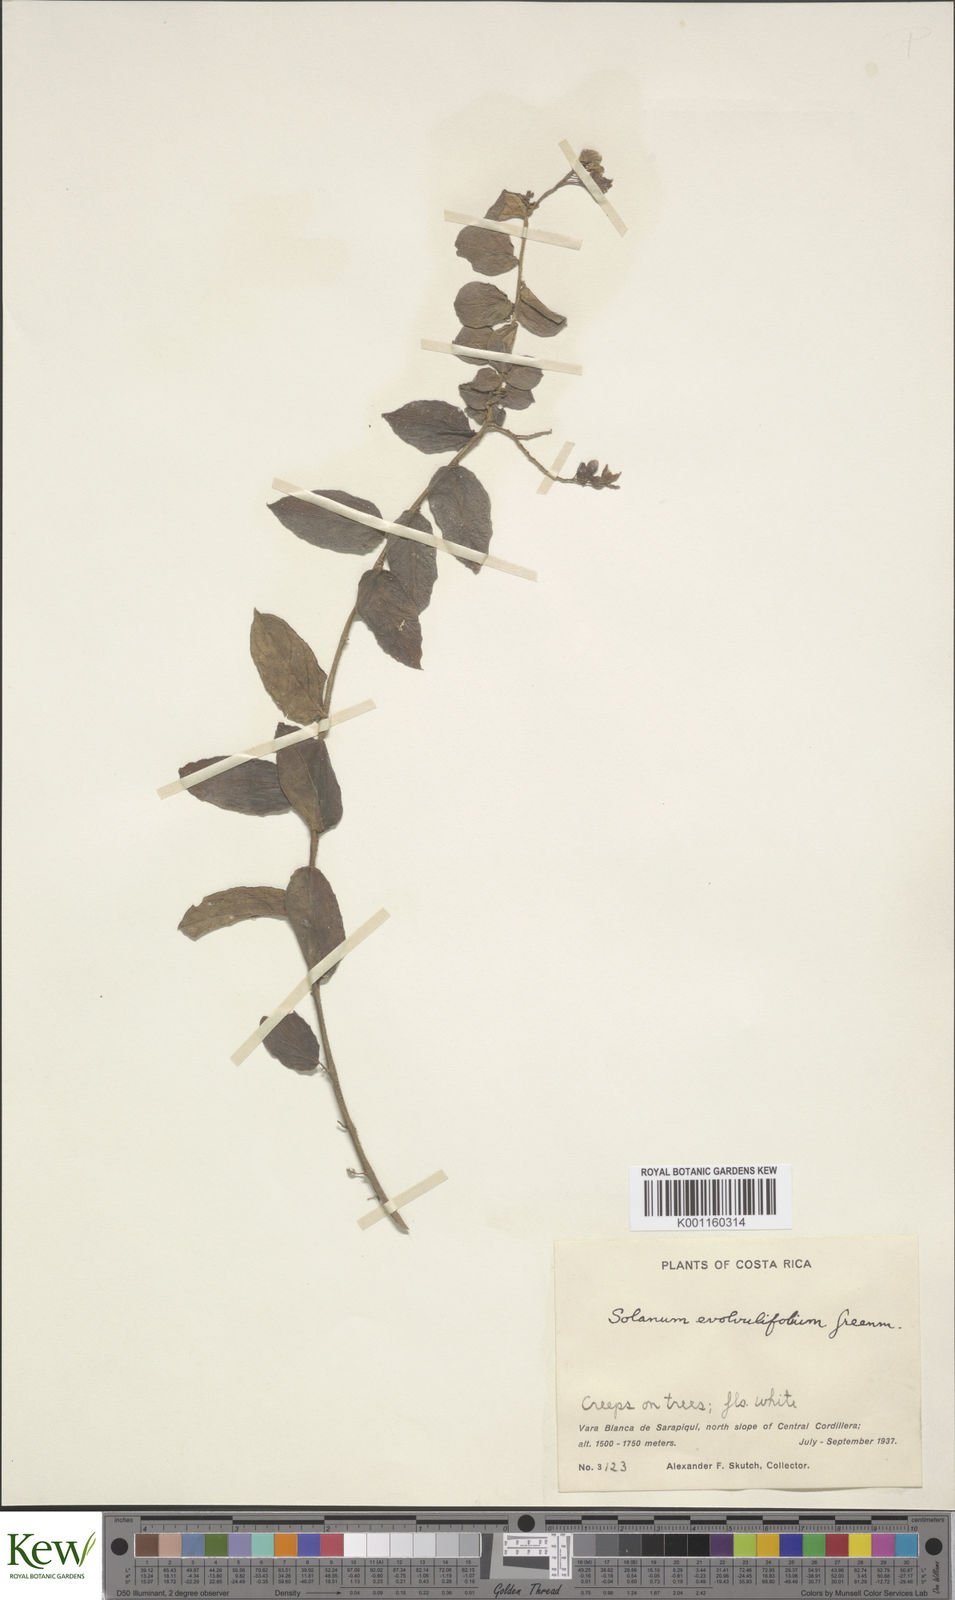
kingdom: Plantae
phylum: Tracheophyta
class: Magnoliopsida
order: Solanales
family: Solanaceae
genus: Solanum
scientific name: Solanum evolvulifolium
